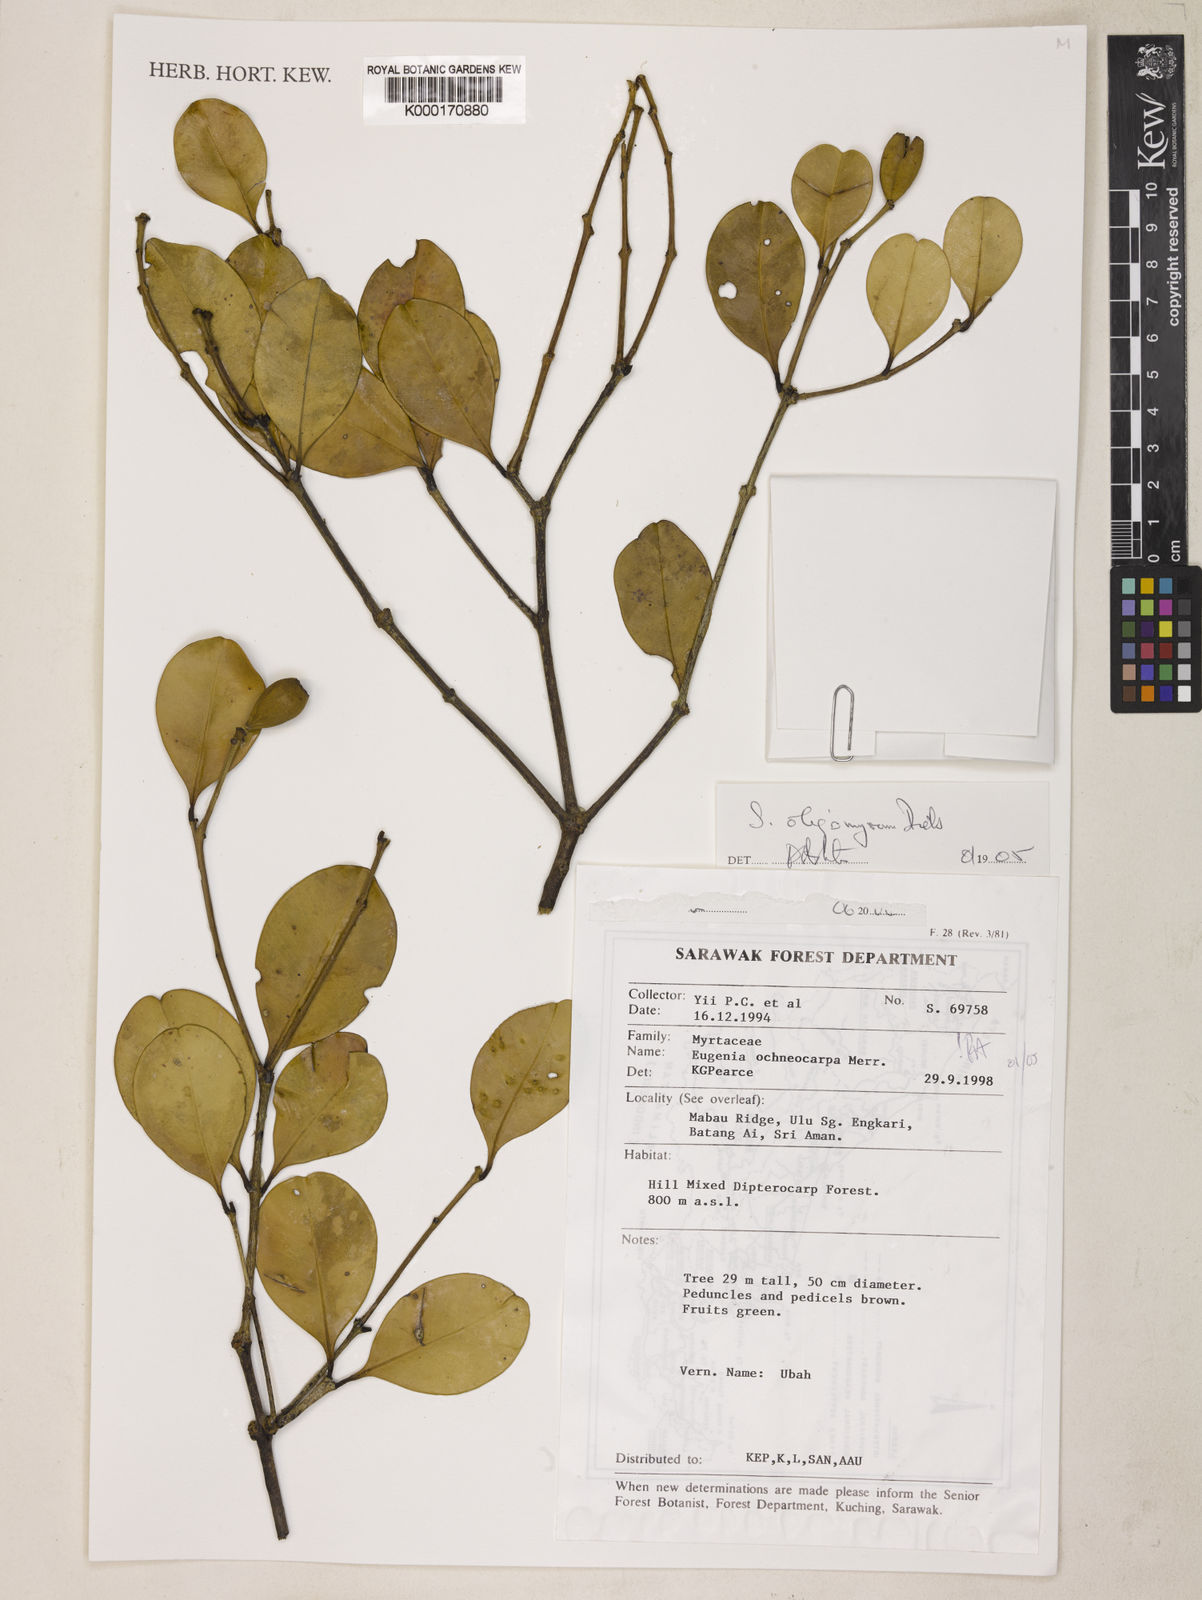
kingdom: Plantae
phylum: Tracheophyta
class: Magnoliopsida
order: Myrtales
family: Myrtaceae
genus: Syzygium
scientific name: Syzygium fusticuliferum
